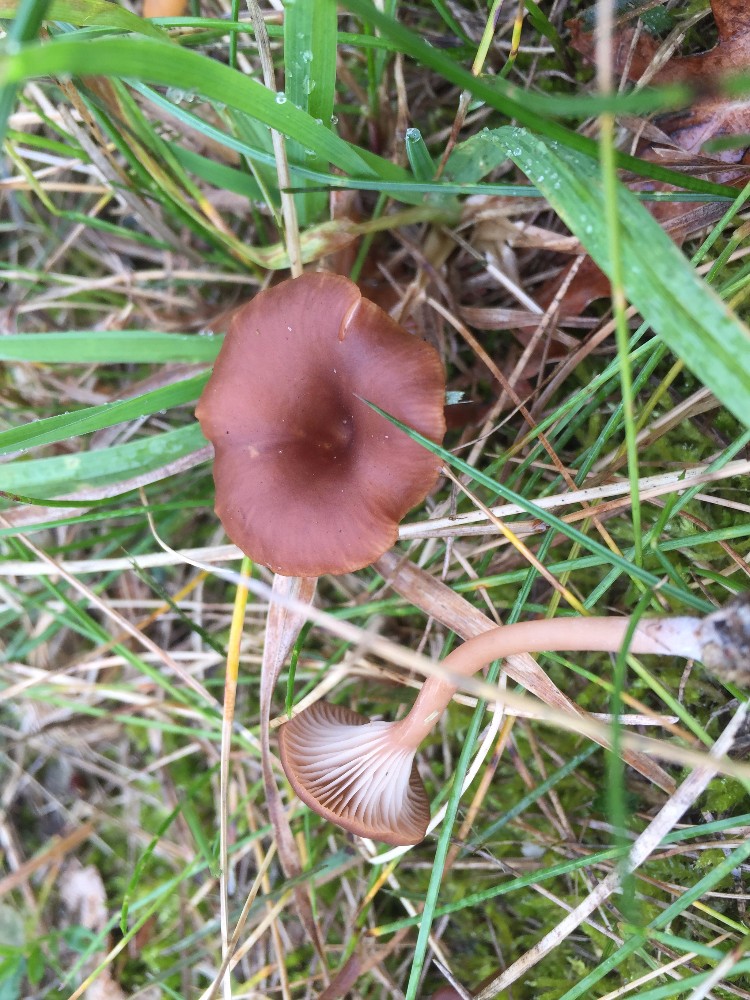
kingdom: Fungi
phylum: Basidiomycota
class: Agaricomycetes
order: Agaricales
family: Tricholomataceae
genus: Omphalina
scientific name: Omphalina pyxidata
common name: rødbrun navlehat
